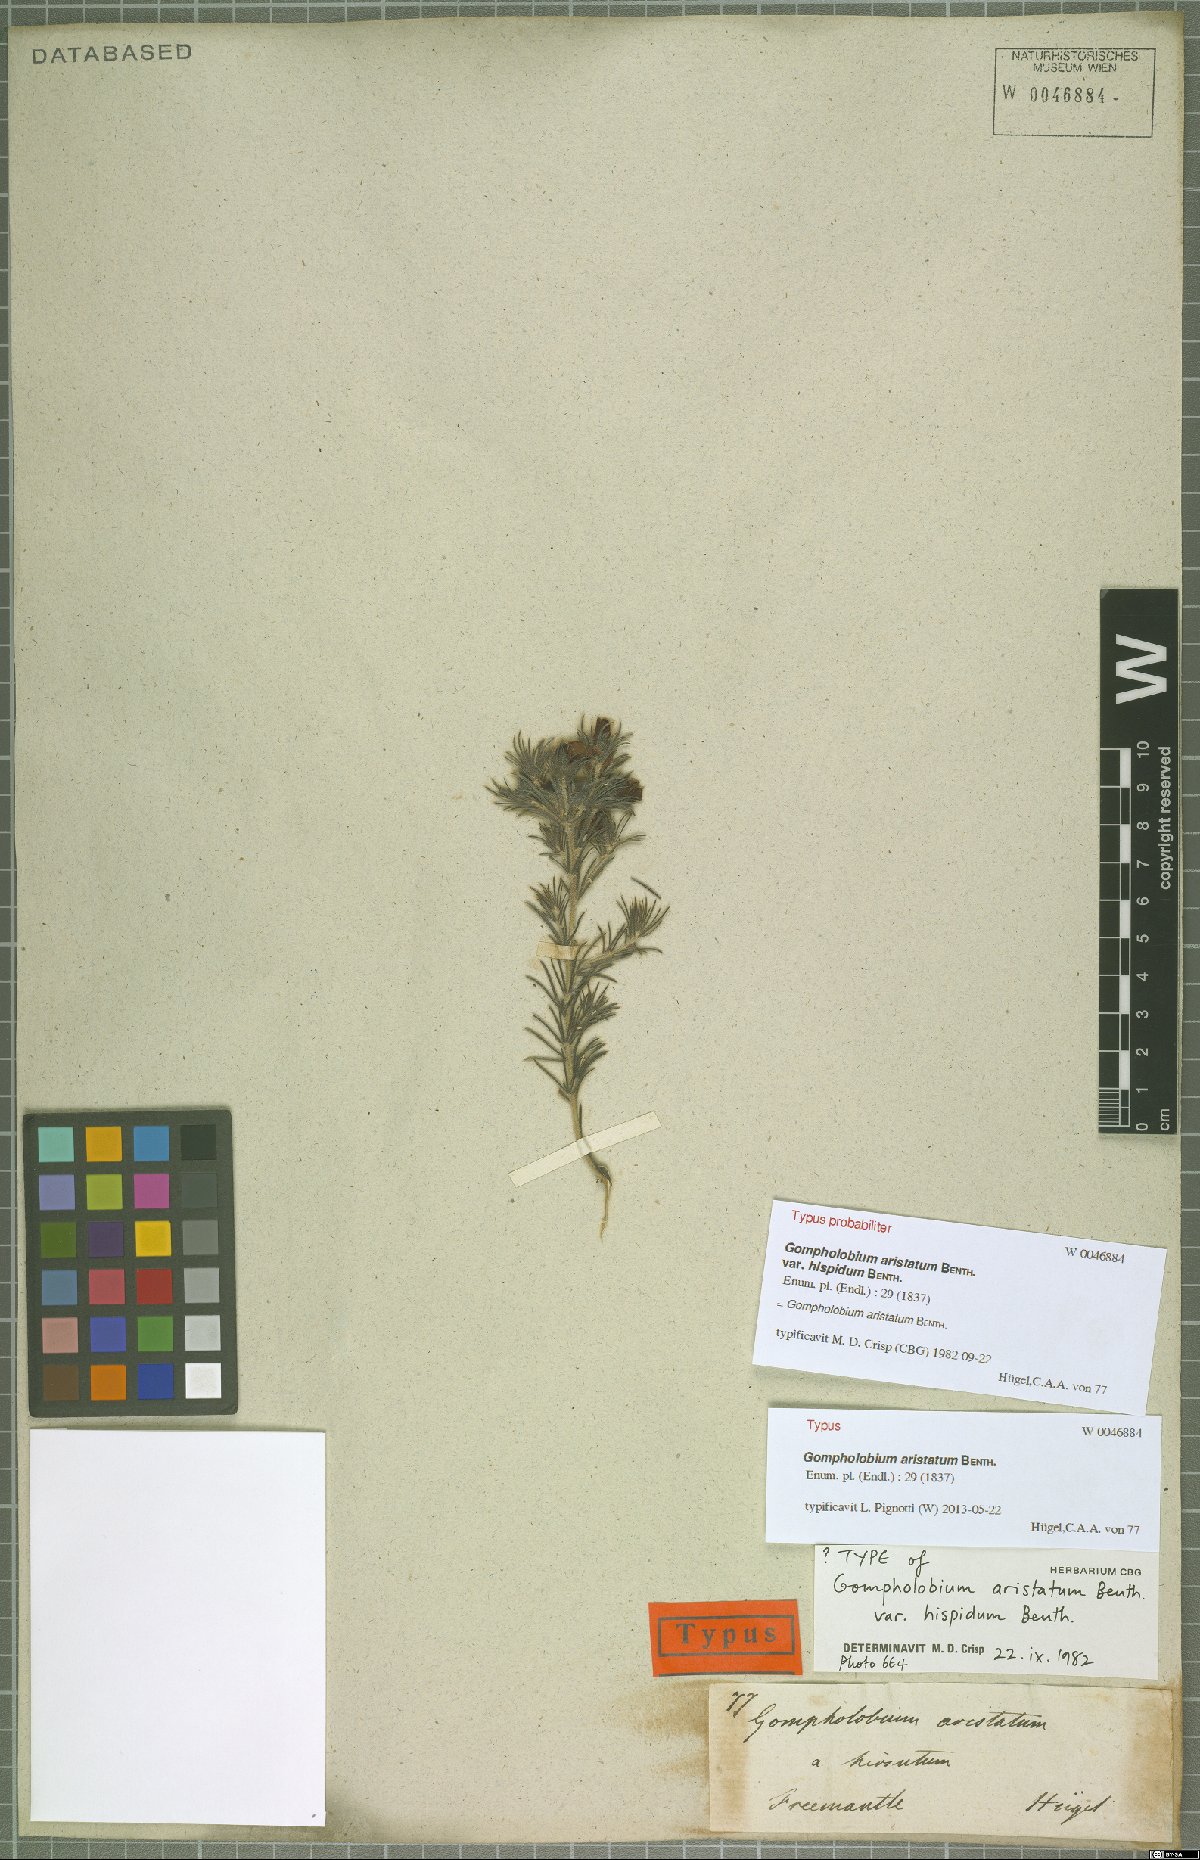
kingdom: Plantae
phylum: Tracheophyta
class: Magnoliopsida
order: Fabales
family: Fabaceae
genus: Gompholobium
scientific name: Gompholobium aristatum
